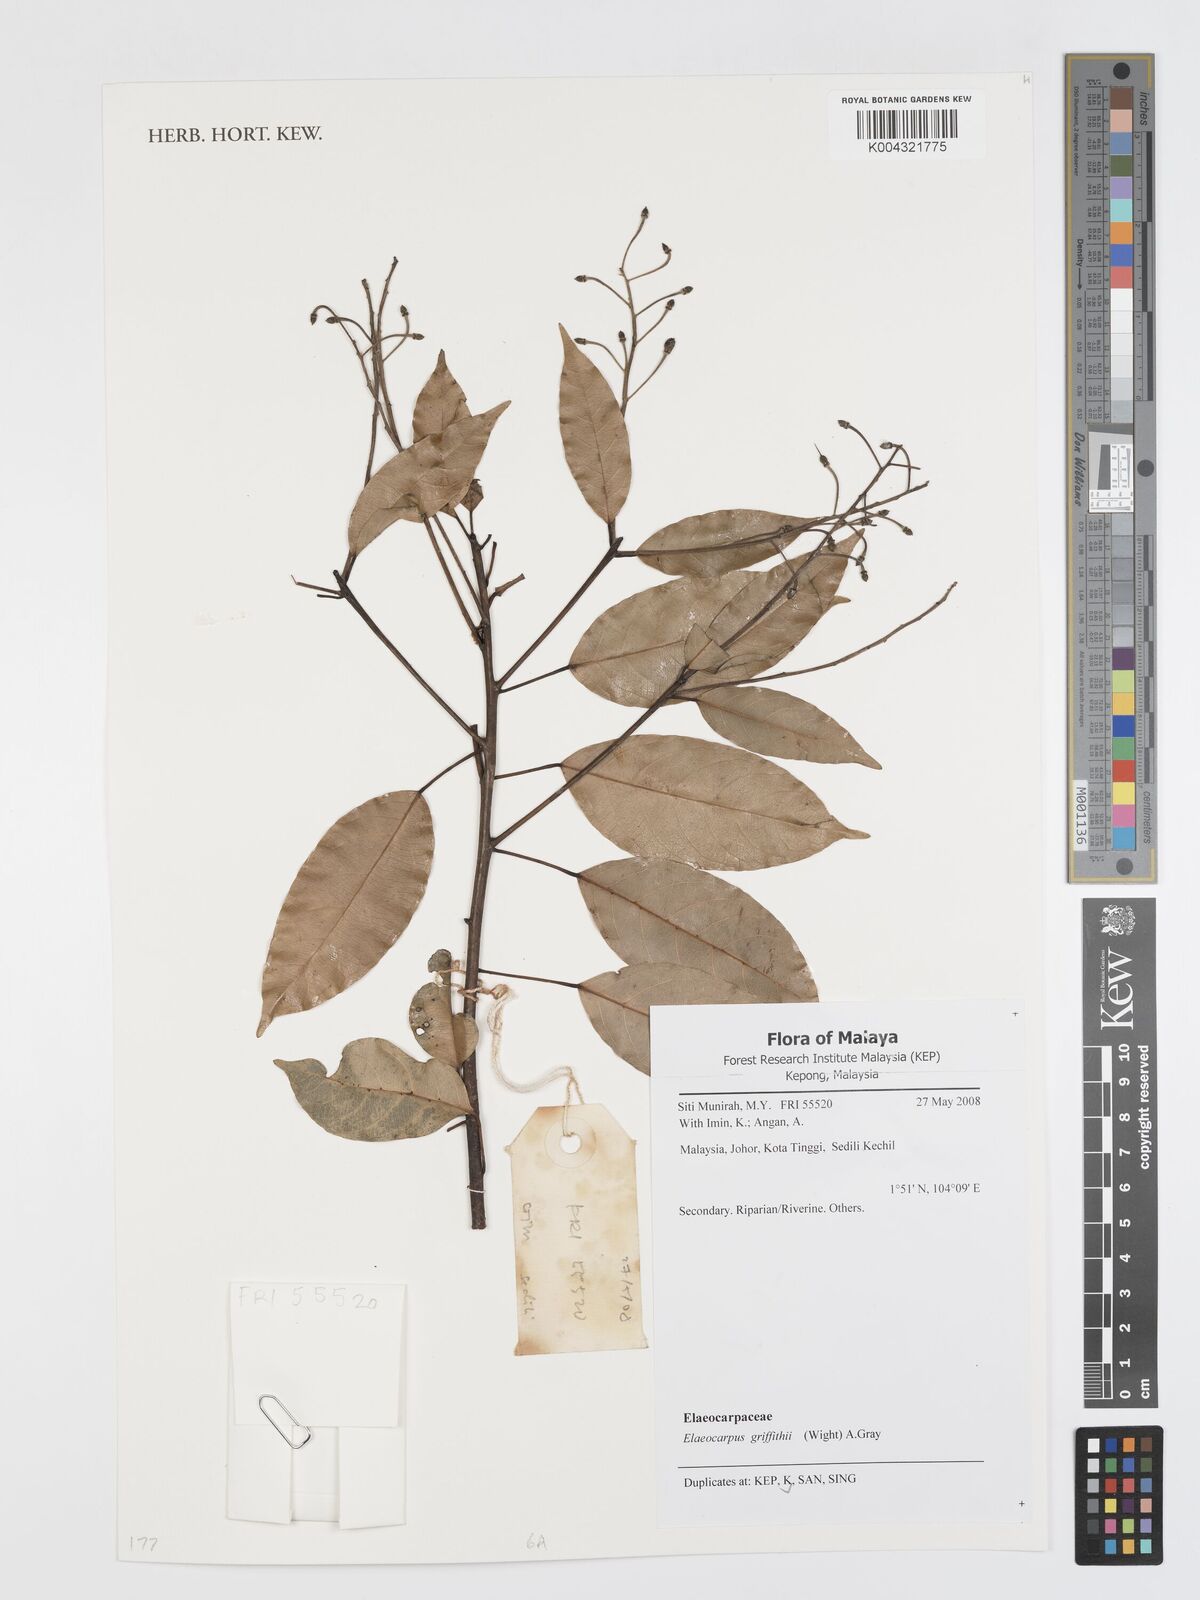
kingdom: Plantae
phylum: Tracheophyta
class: Magnoliopsida
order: Oxalidales
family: Elaeocarpaceae
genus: Elaeocarpus
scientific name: Elaeocarpus griffithii
